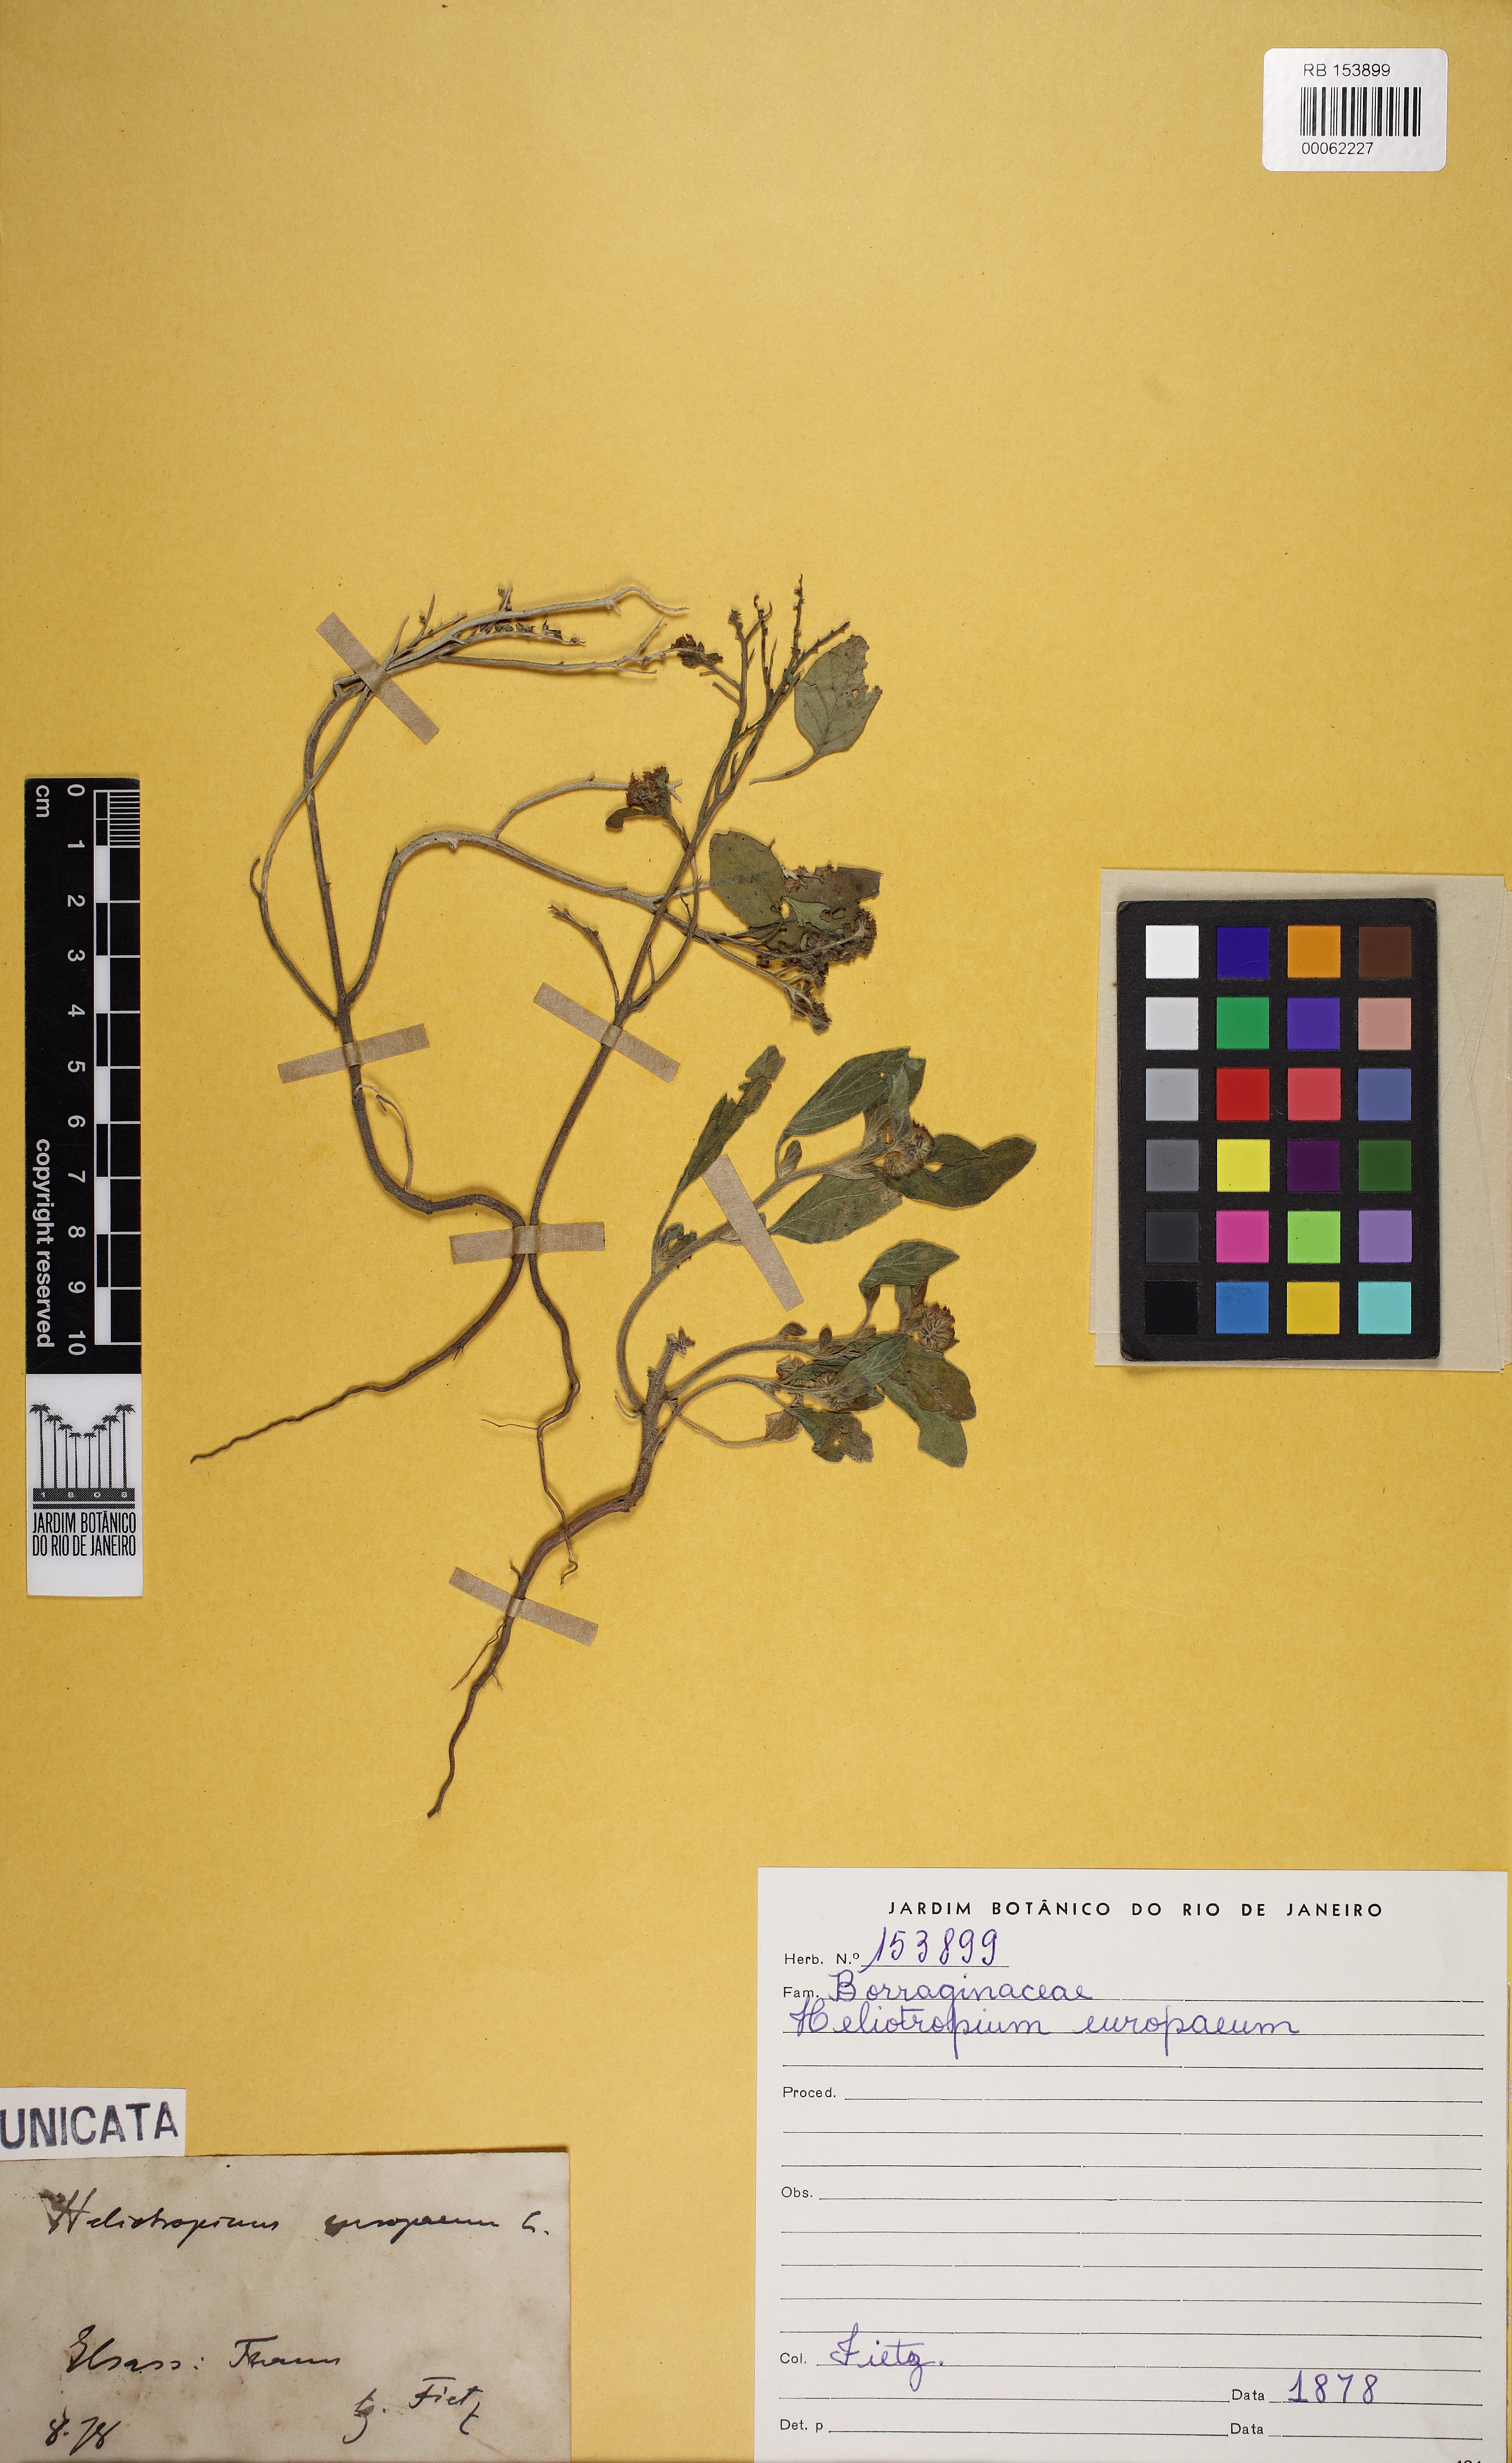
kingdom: Plantae
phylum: Tracheophyta
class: Magnoliopsida
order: Boraginales
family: Heliotropiaceae
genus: Heliotropium
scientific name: Heliotropium europaeum
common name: European heliotrope
